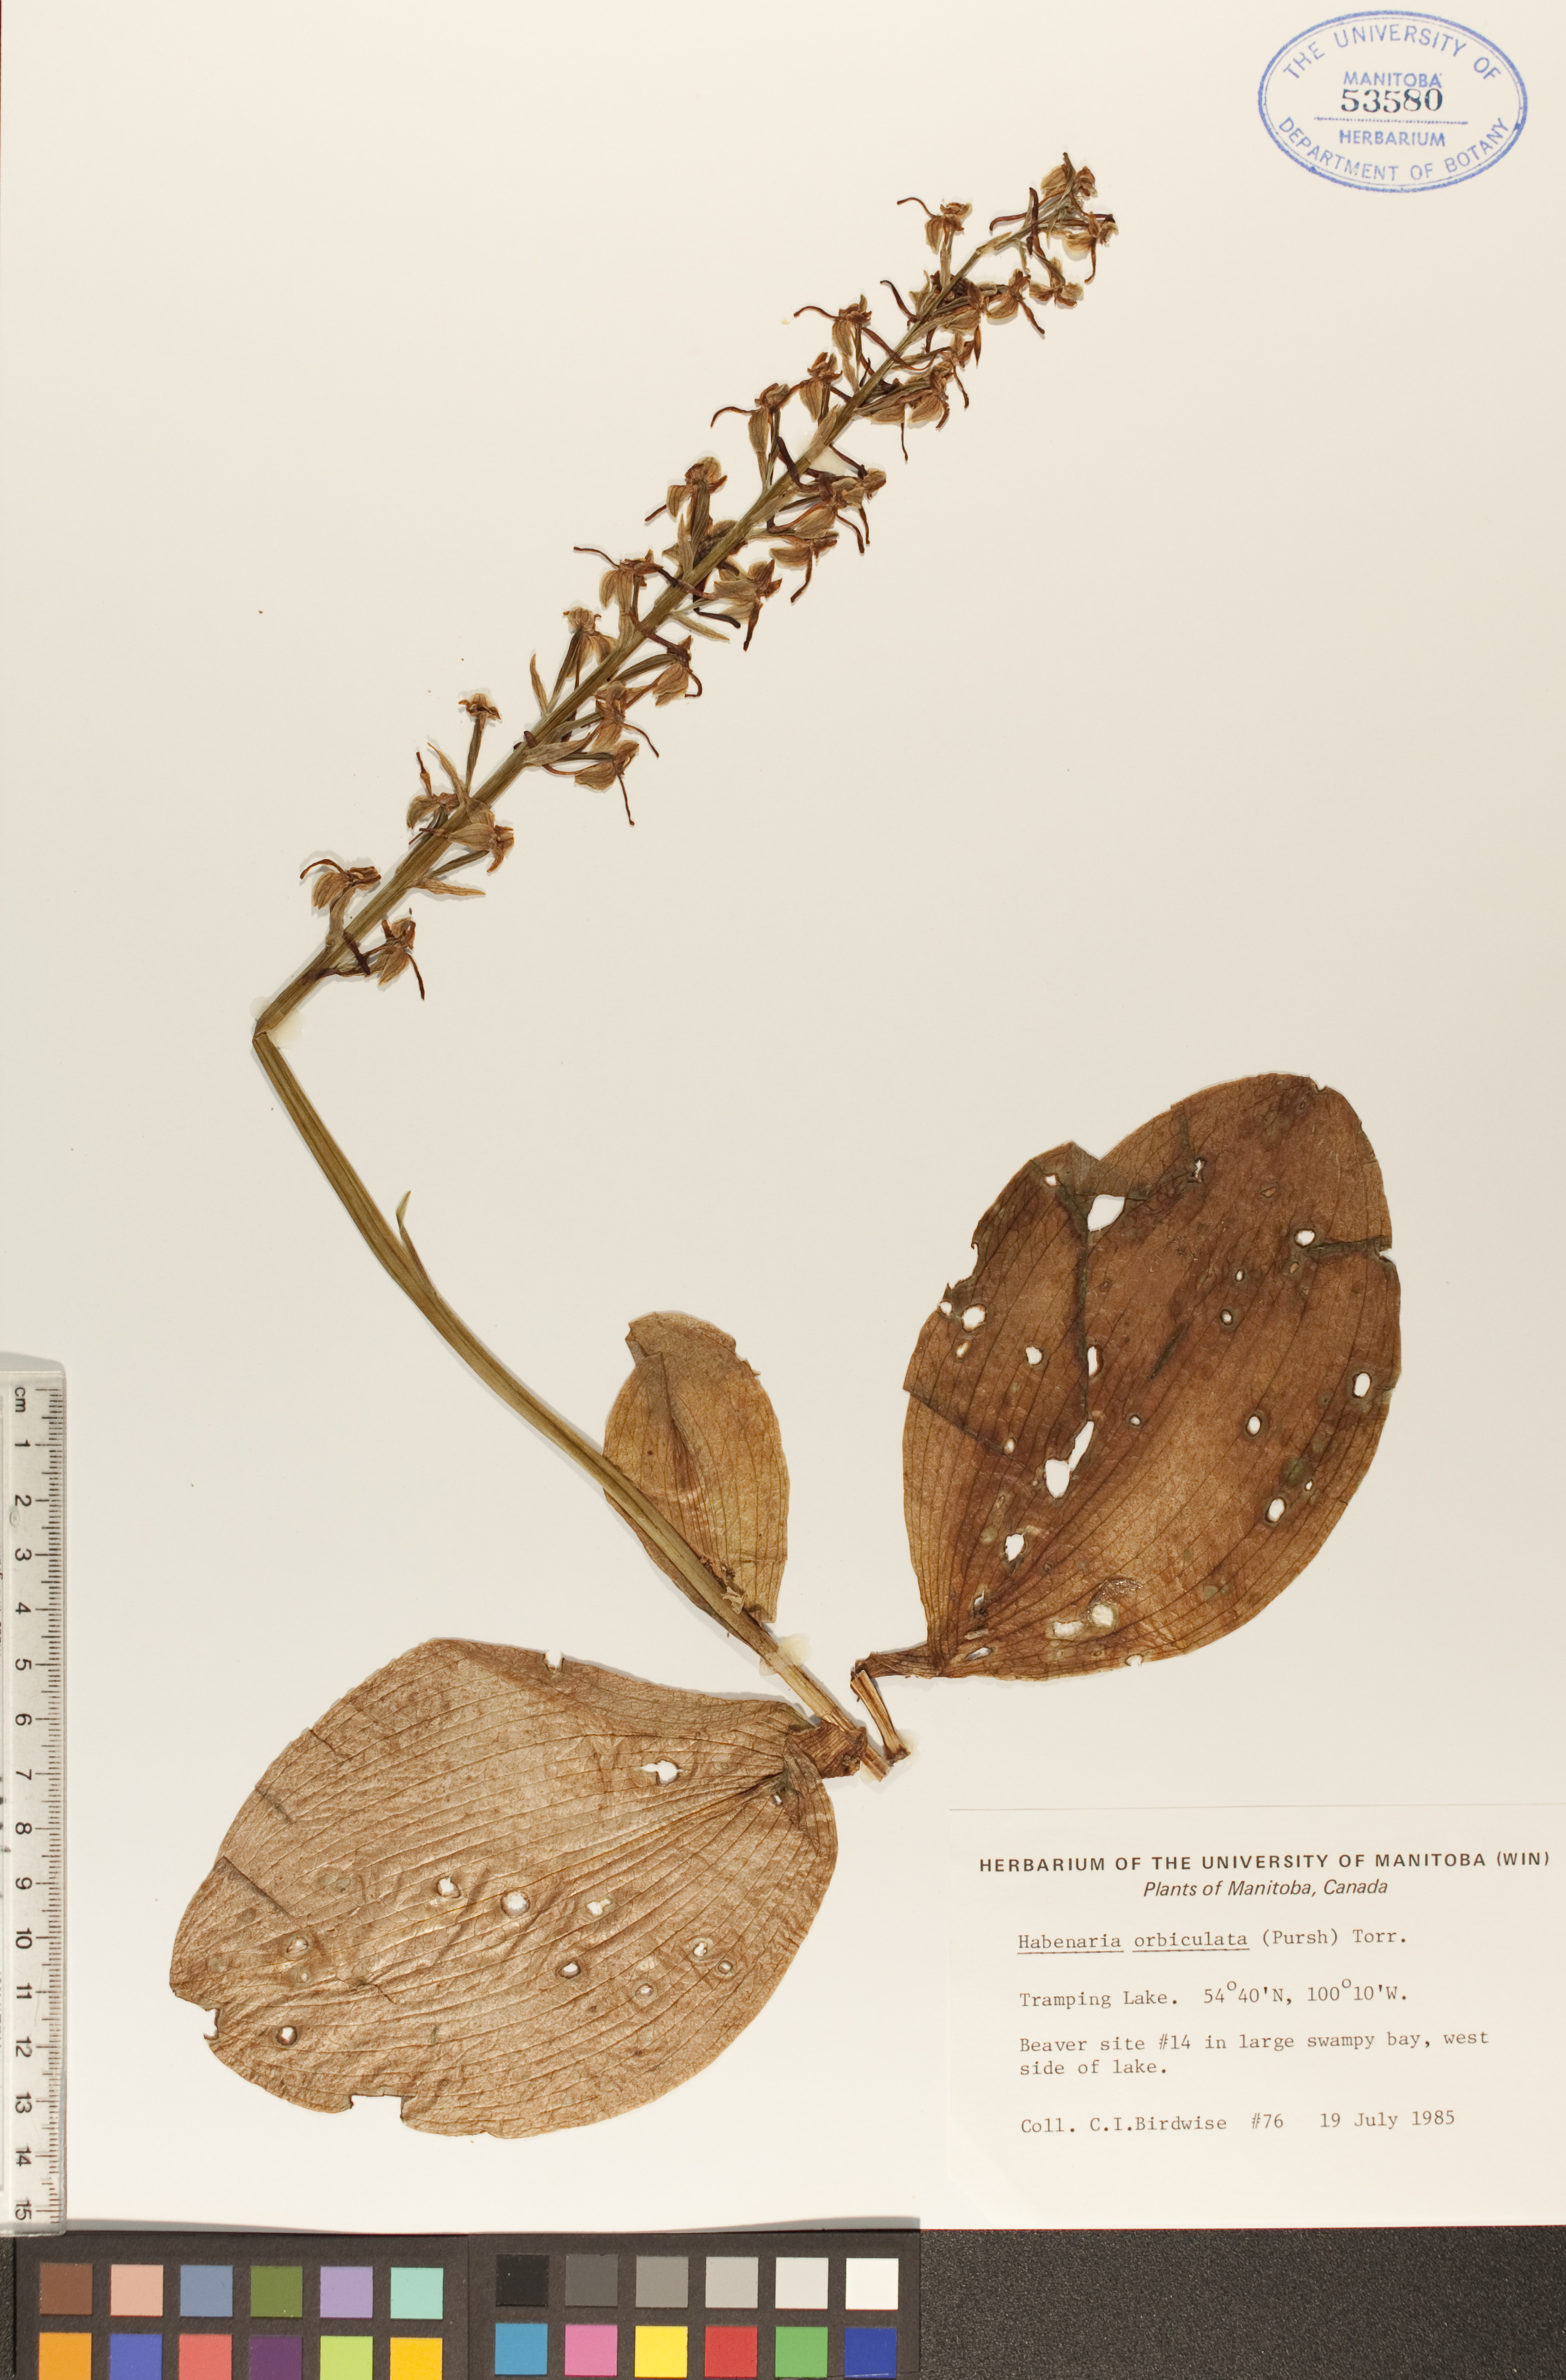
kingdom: Plantae
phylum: Tracheophyta
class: Liliopsida
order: Asparagales
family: Orchidaceae
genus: Platanthera
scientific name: Platanthera orbiculata
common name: Large round-leaved orchid
